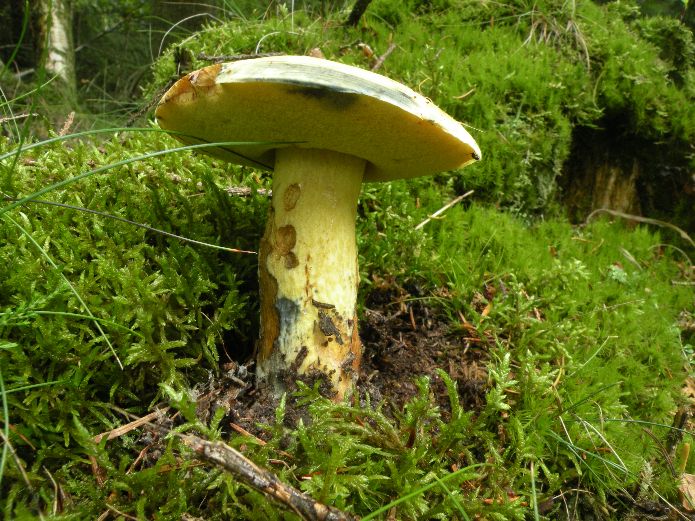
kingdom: Fungi
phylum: Basidiomycota
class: Agaricomycetes
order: Boletales
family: Boletaceae
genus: Neoboletus
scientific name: Neoboletus erythropus
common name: punktstokket indigorørhat
